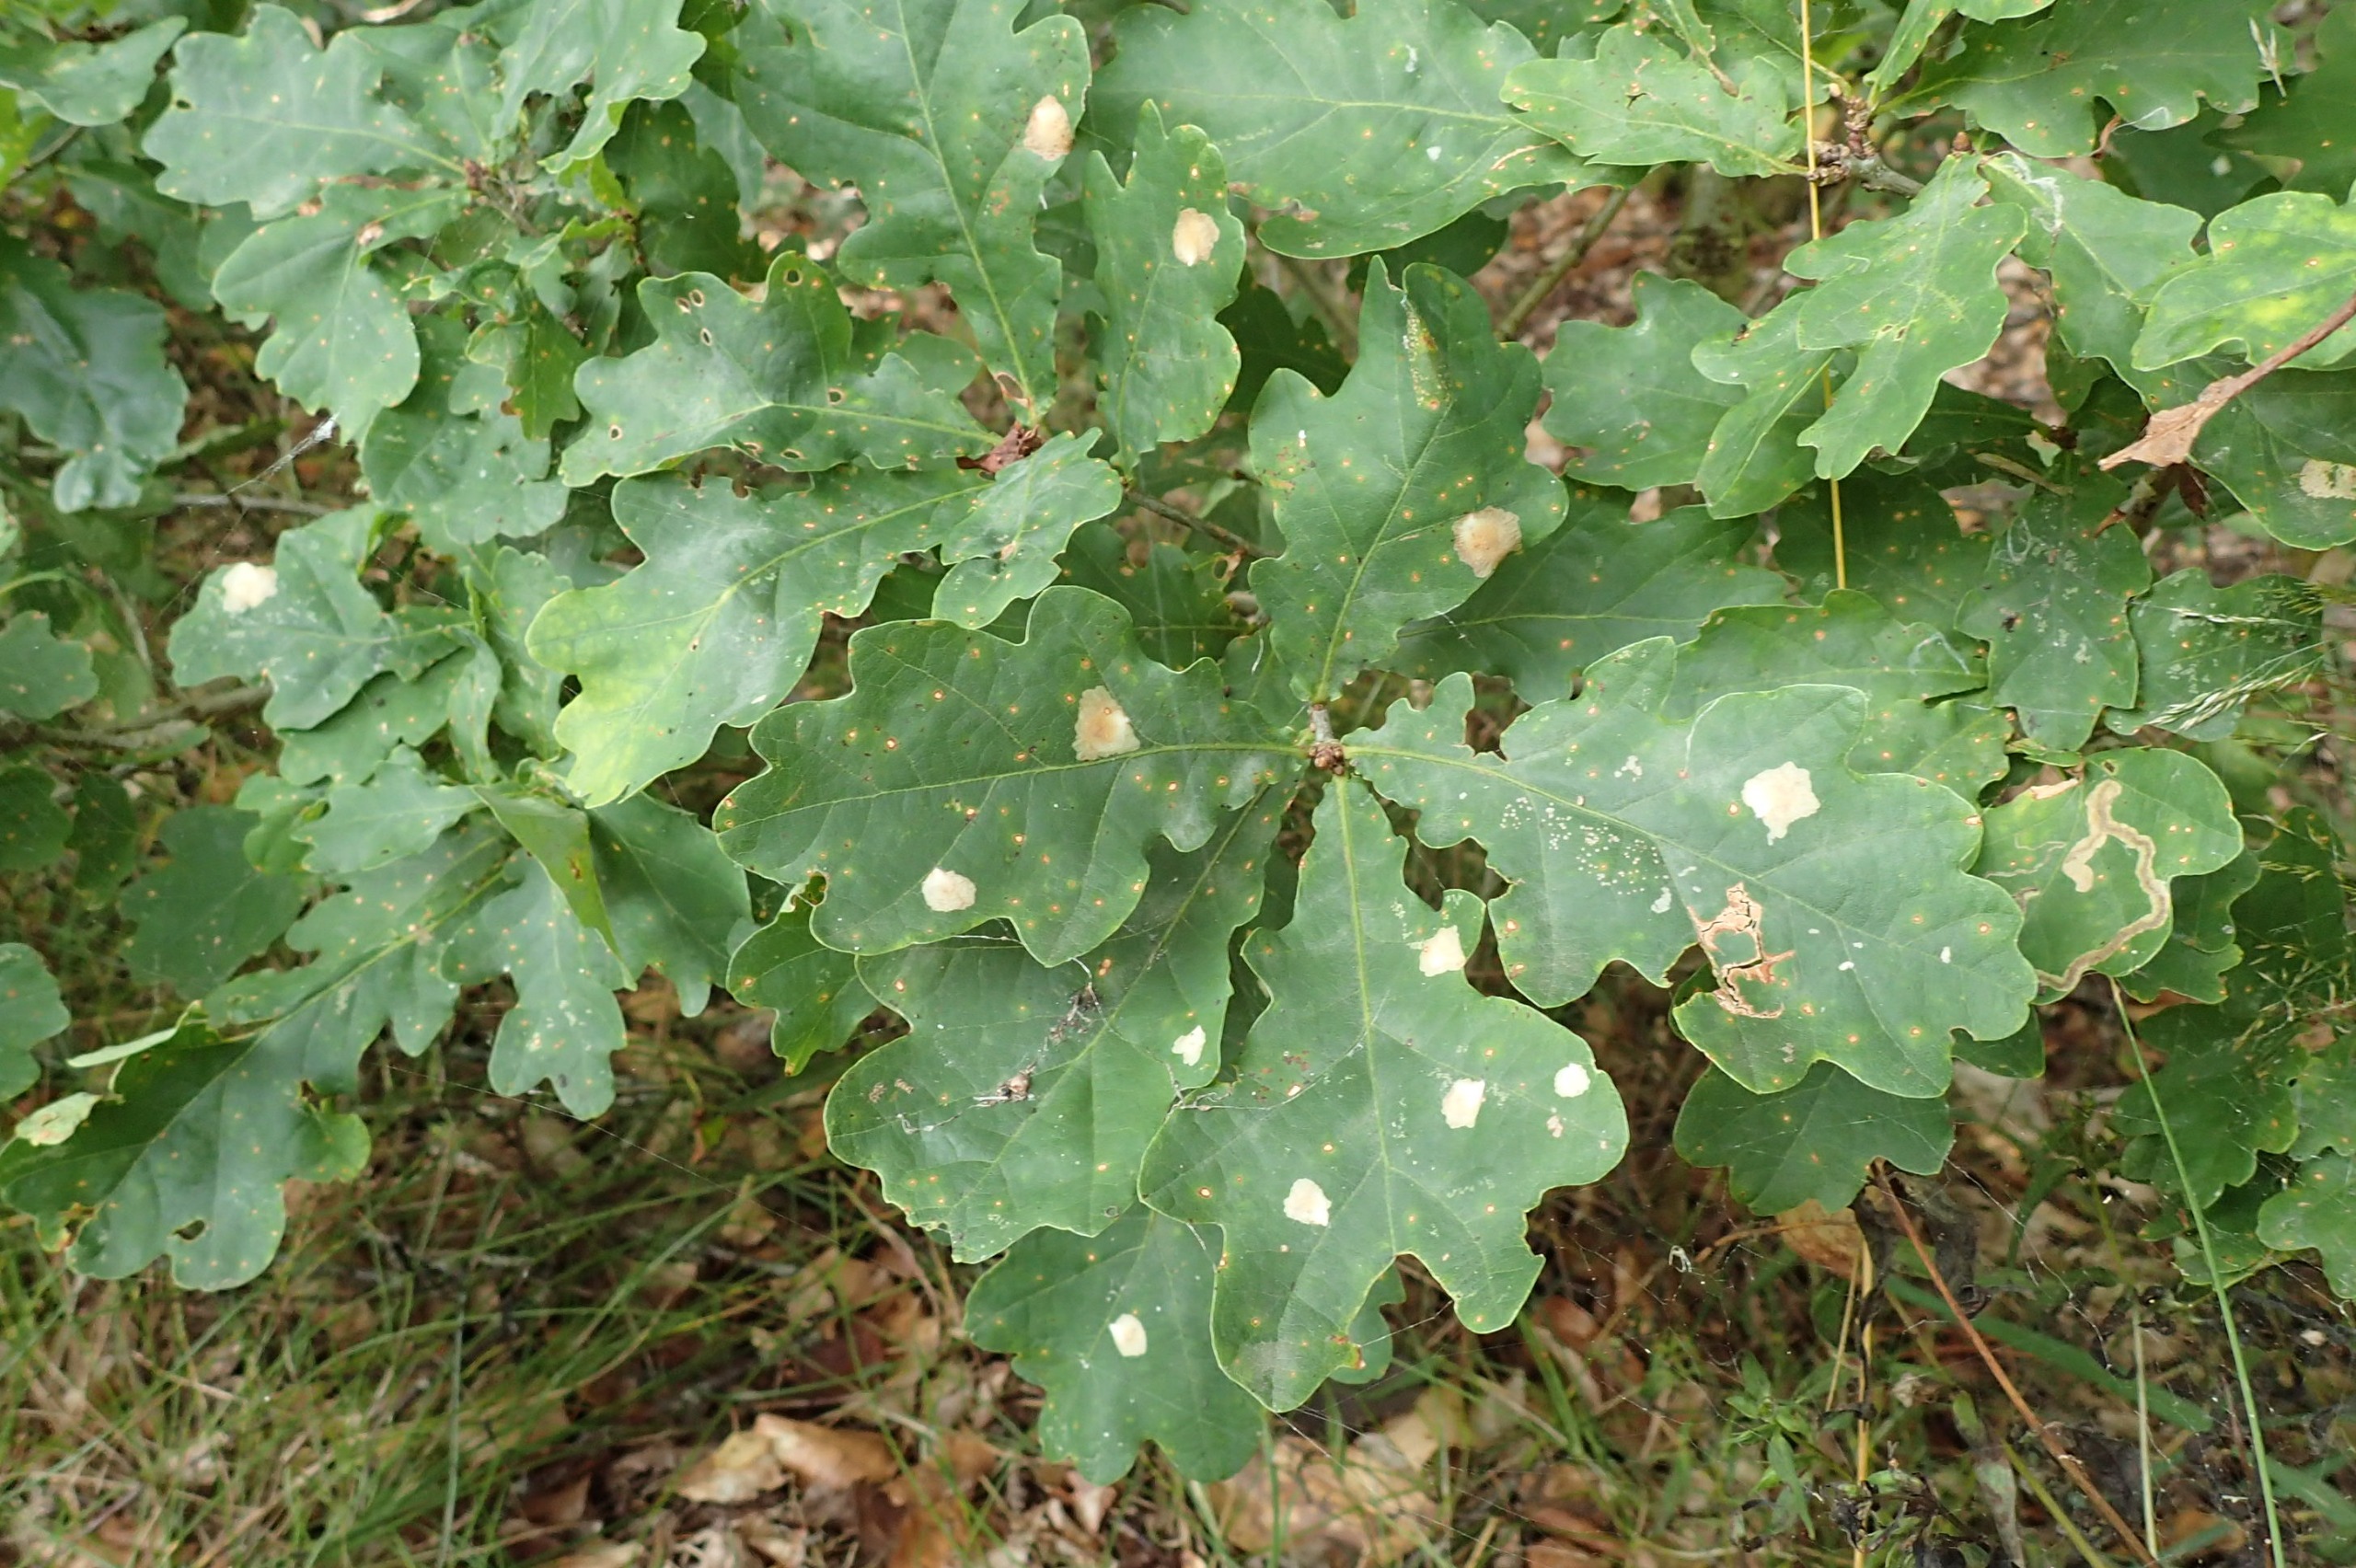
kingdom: Animalia
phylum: Arthropoda
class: Insecta
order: Lepidoptera
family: Tischeriidae
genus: Tischeria
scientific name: Tischeria ekebladella
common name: Egepandeduskmøl
